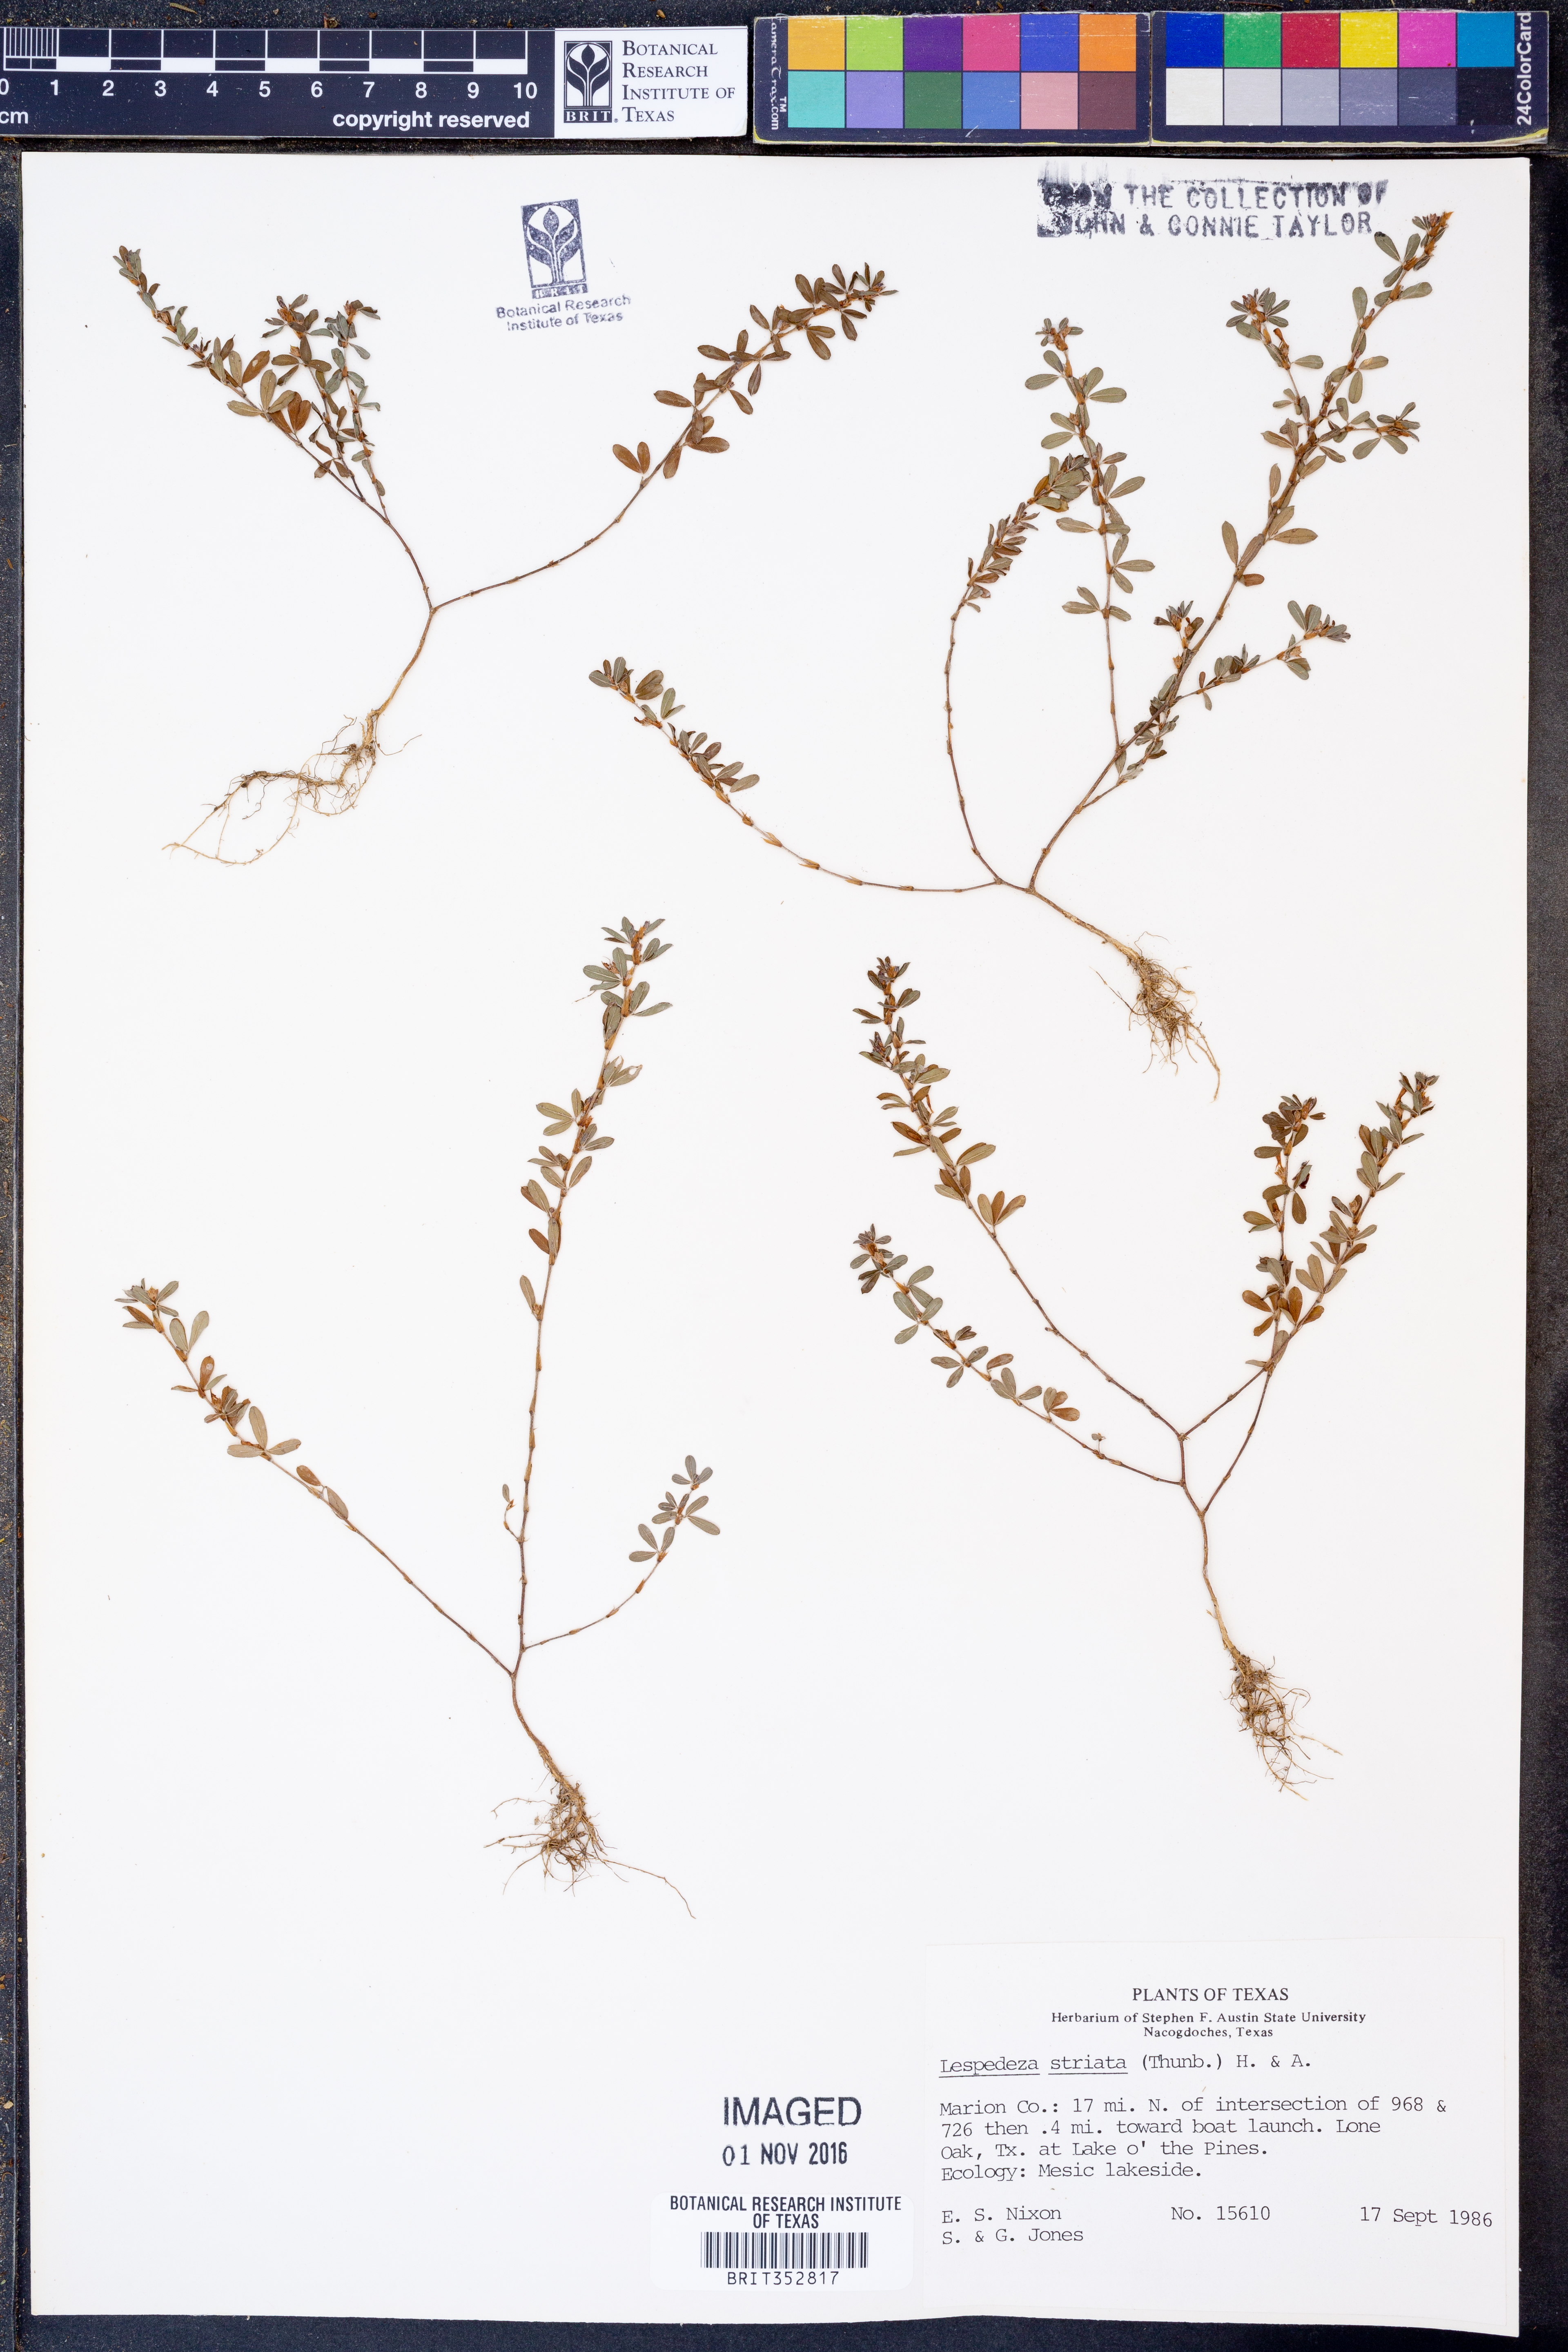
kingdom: Plantae
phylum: Tracheophyta
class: Magnoliopsida
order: Fabales
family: Fabaceae
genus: Kummerowia
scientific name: Kummerowia striata
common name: Japanese clover
